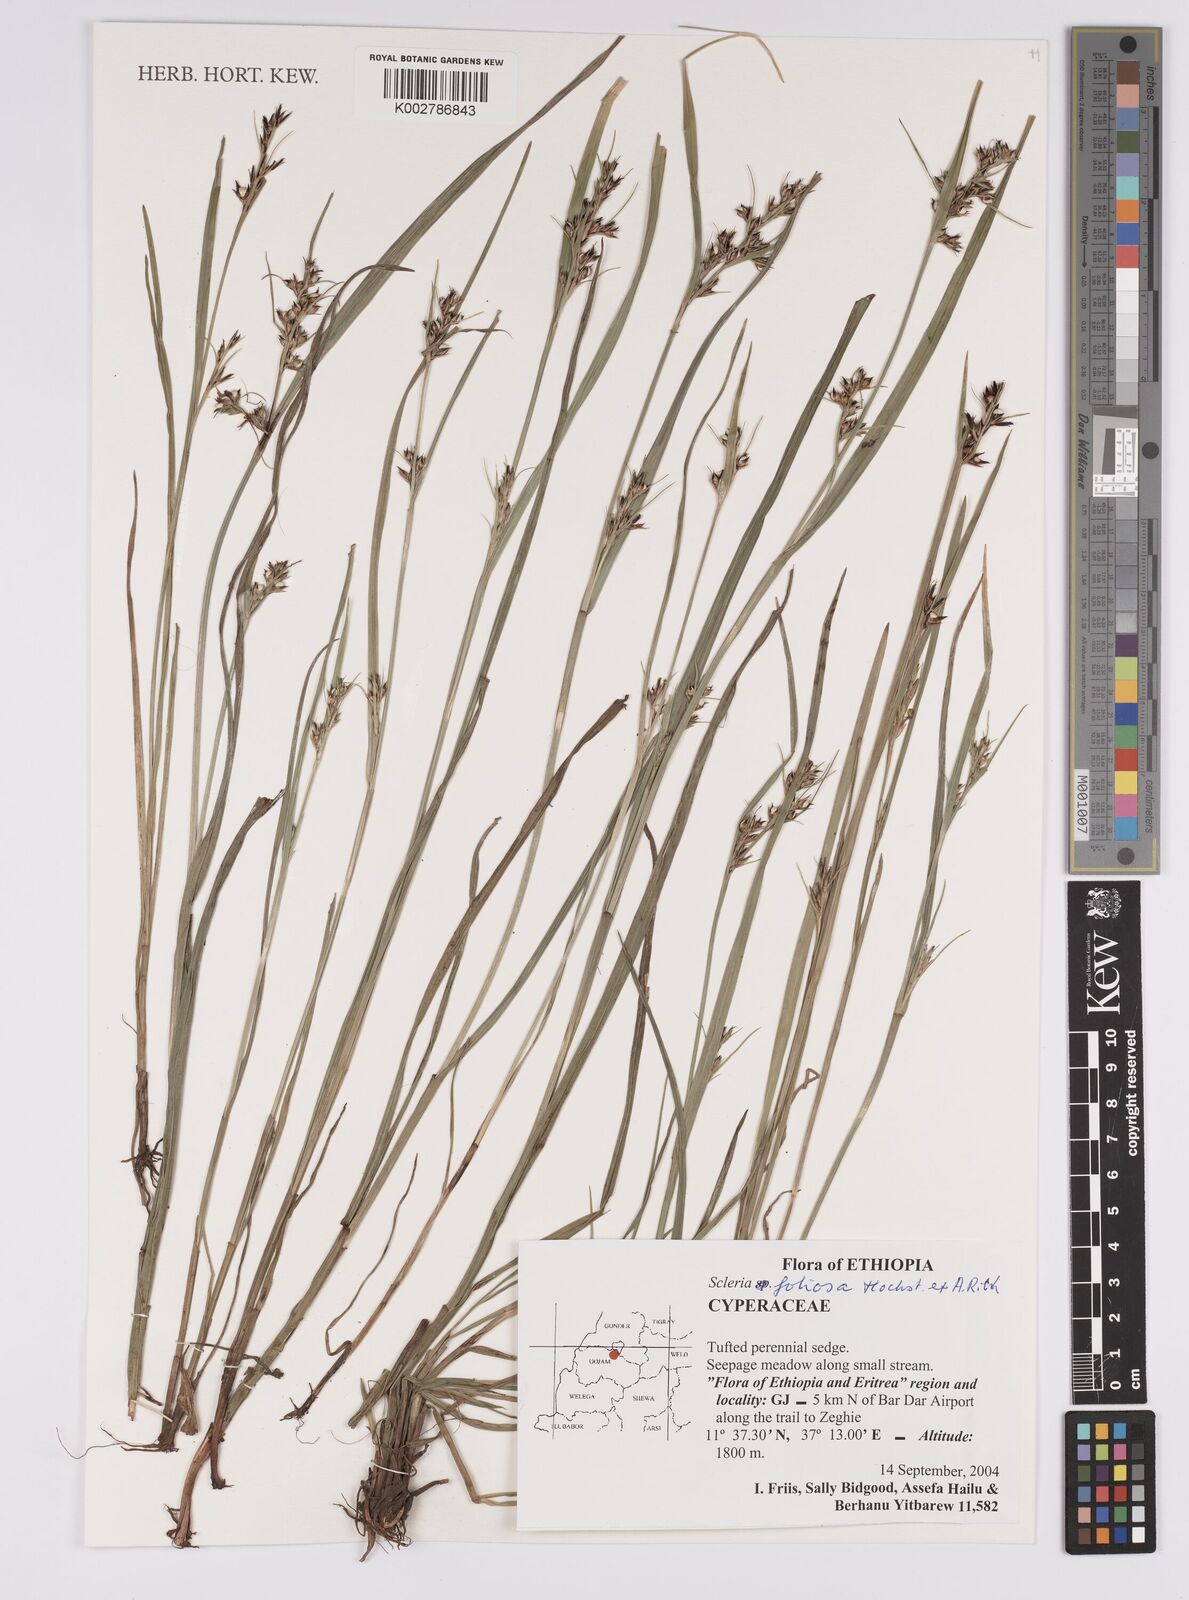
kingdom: Plantae
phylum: Tracheophyta
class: Liliopsida
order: Poales
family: Cyperaceae
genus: Scleria
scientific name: Scleria foliosa
